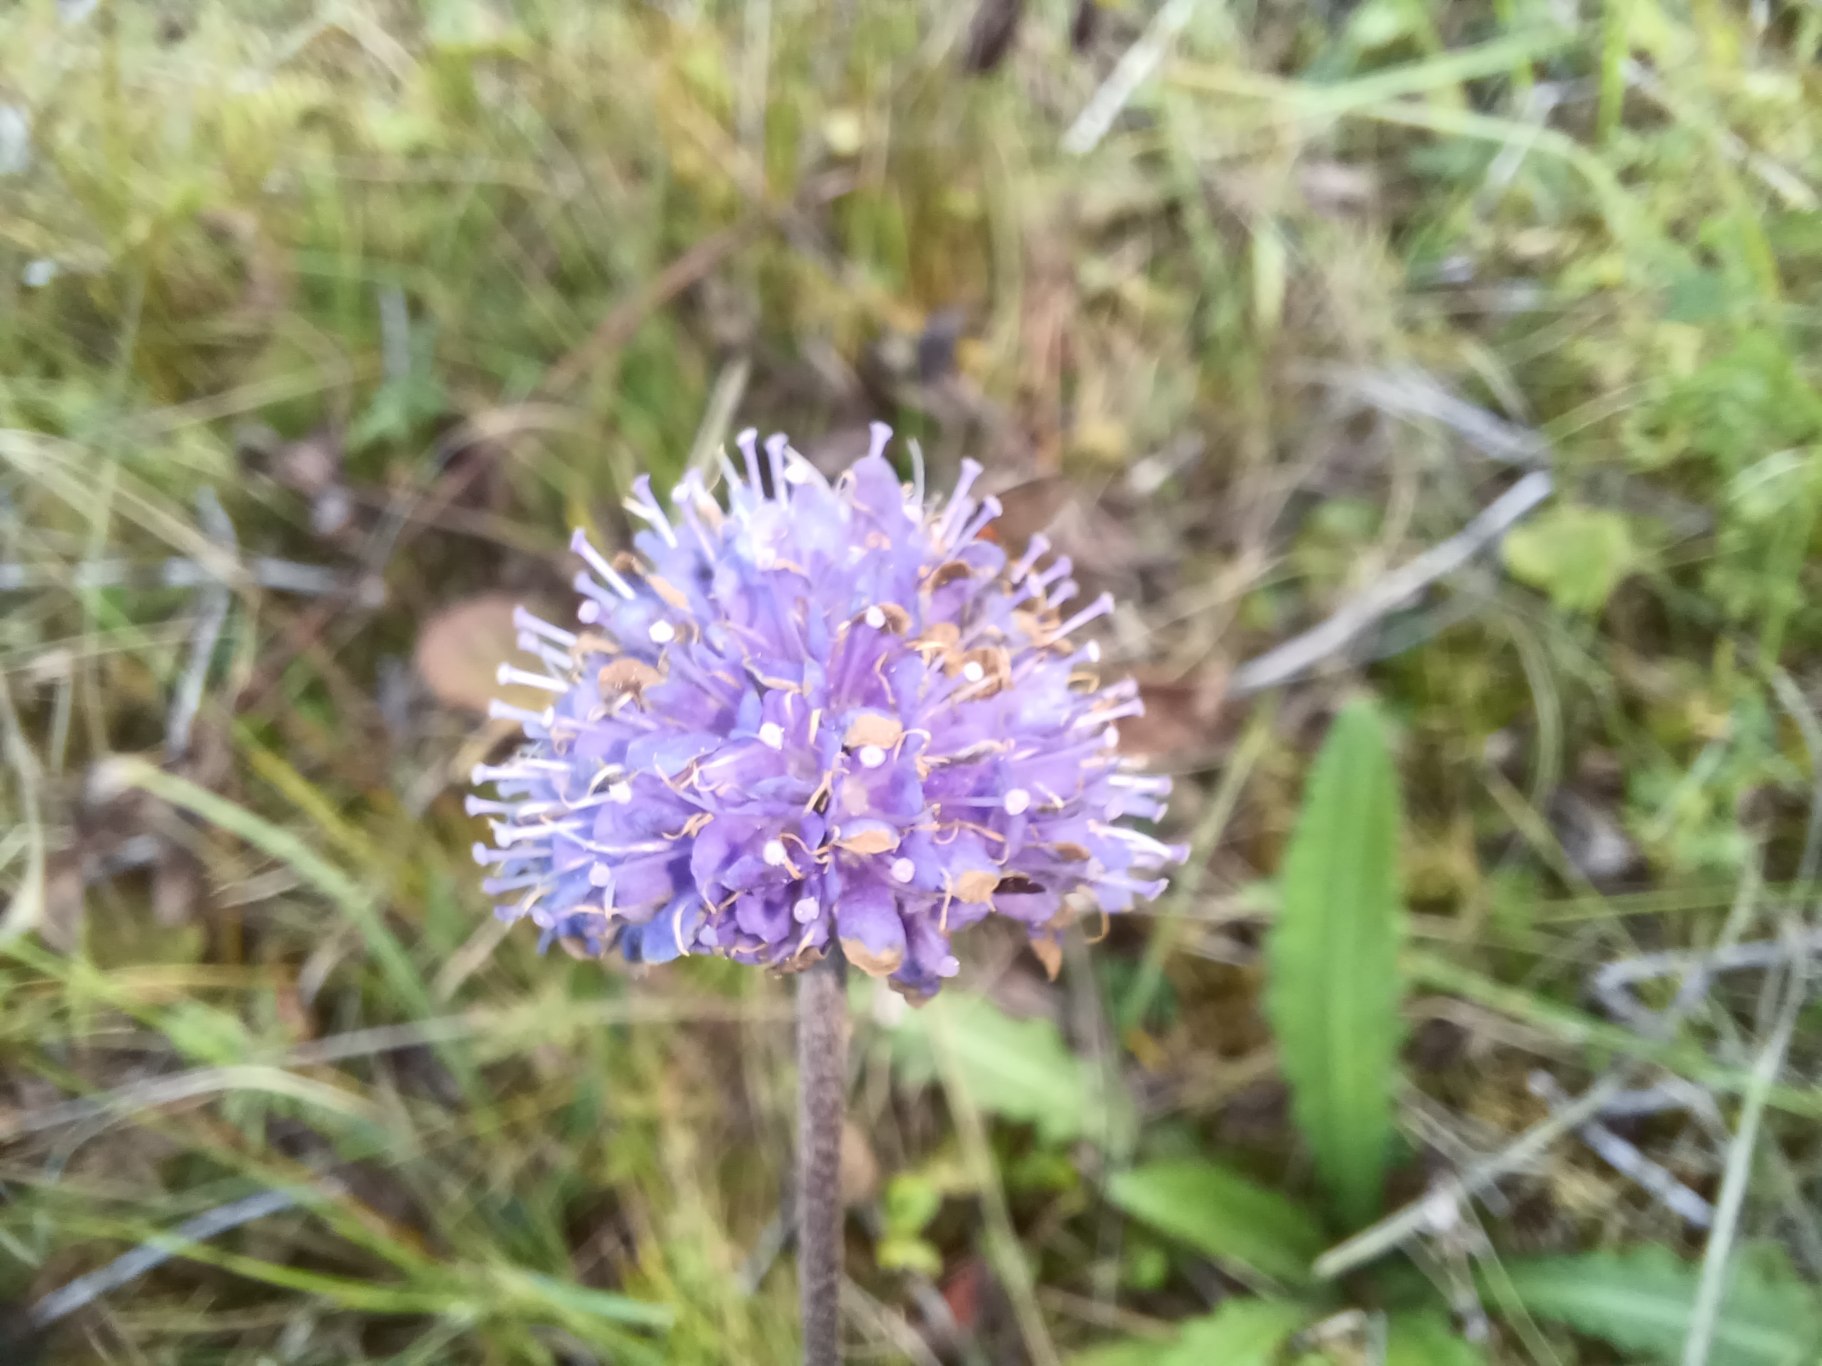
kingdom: Plantae
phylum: Tracheophyta
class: Magnoliopsida
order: Dipsacales
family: Caprifoliaceae
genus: Succisa
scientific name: Succisa pratensis
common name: Djævelsbid
